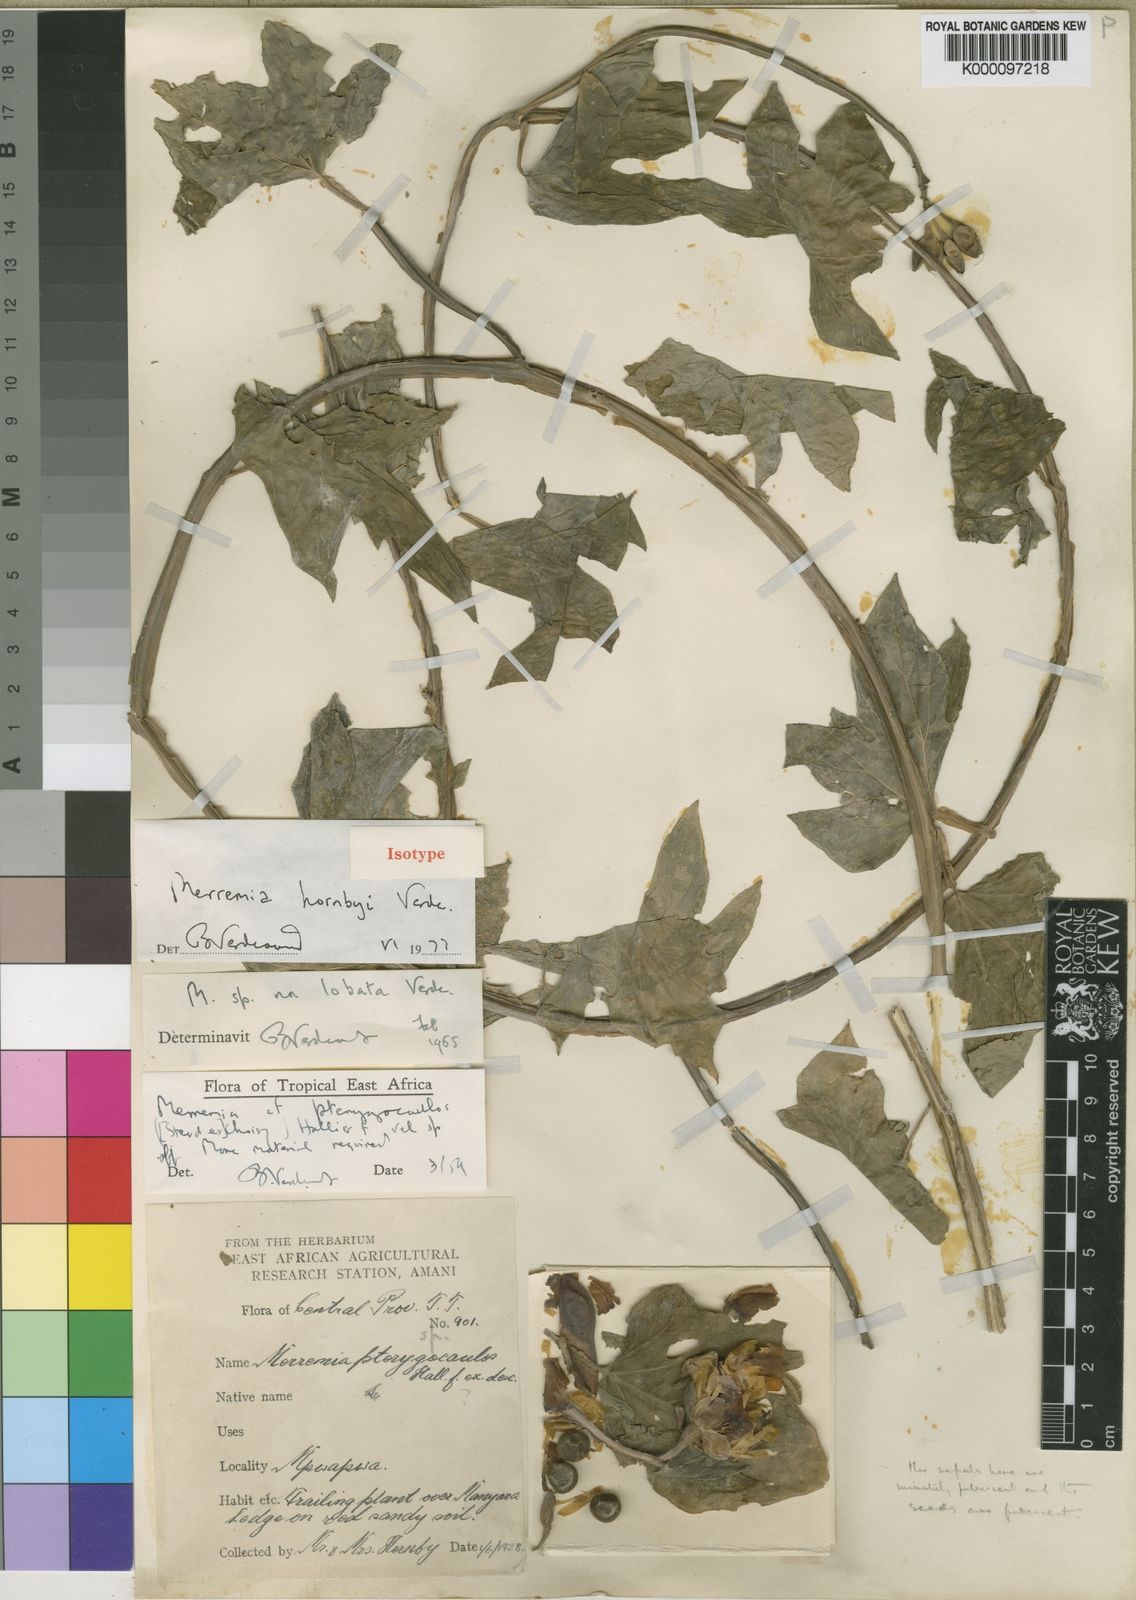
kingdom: Plantae
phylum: Tracheophyta
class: Magnoliopsida
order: Solanales
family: Convolvulaceae
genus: Merremia
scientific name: Merremia hornbyi
